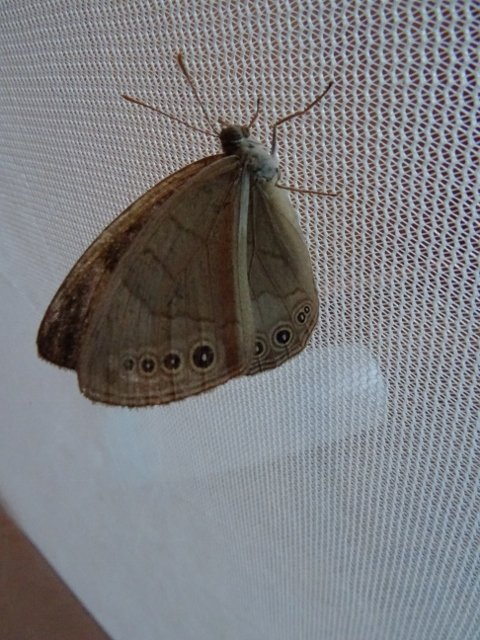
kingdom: Animalia
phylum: Arthropoda
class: Insecta
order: Lepidoptera
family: Nymphalidae
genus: Lethe
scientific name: Lethe eurydice
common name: Appalachian Eyed Brown
